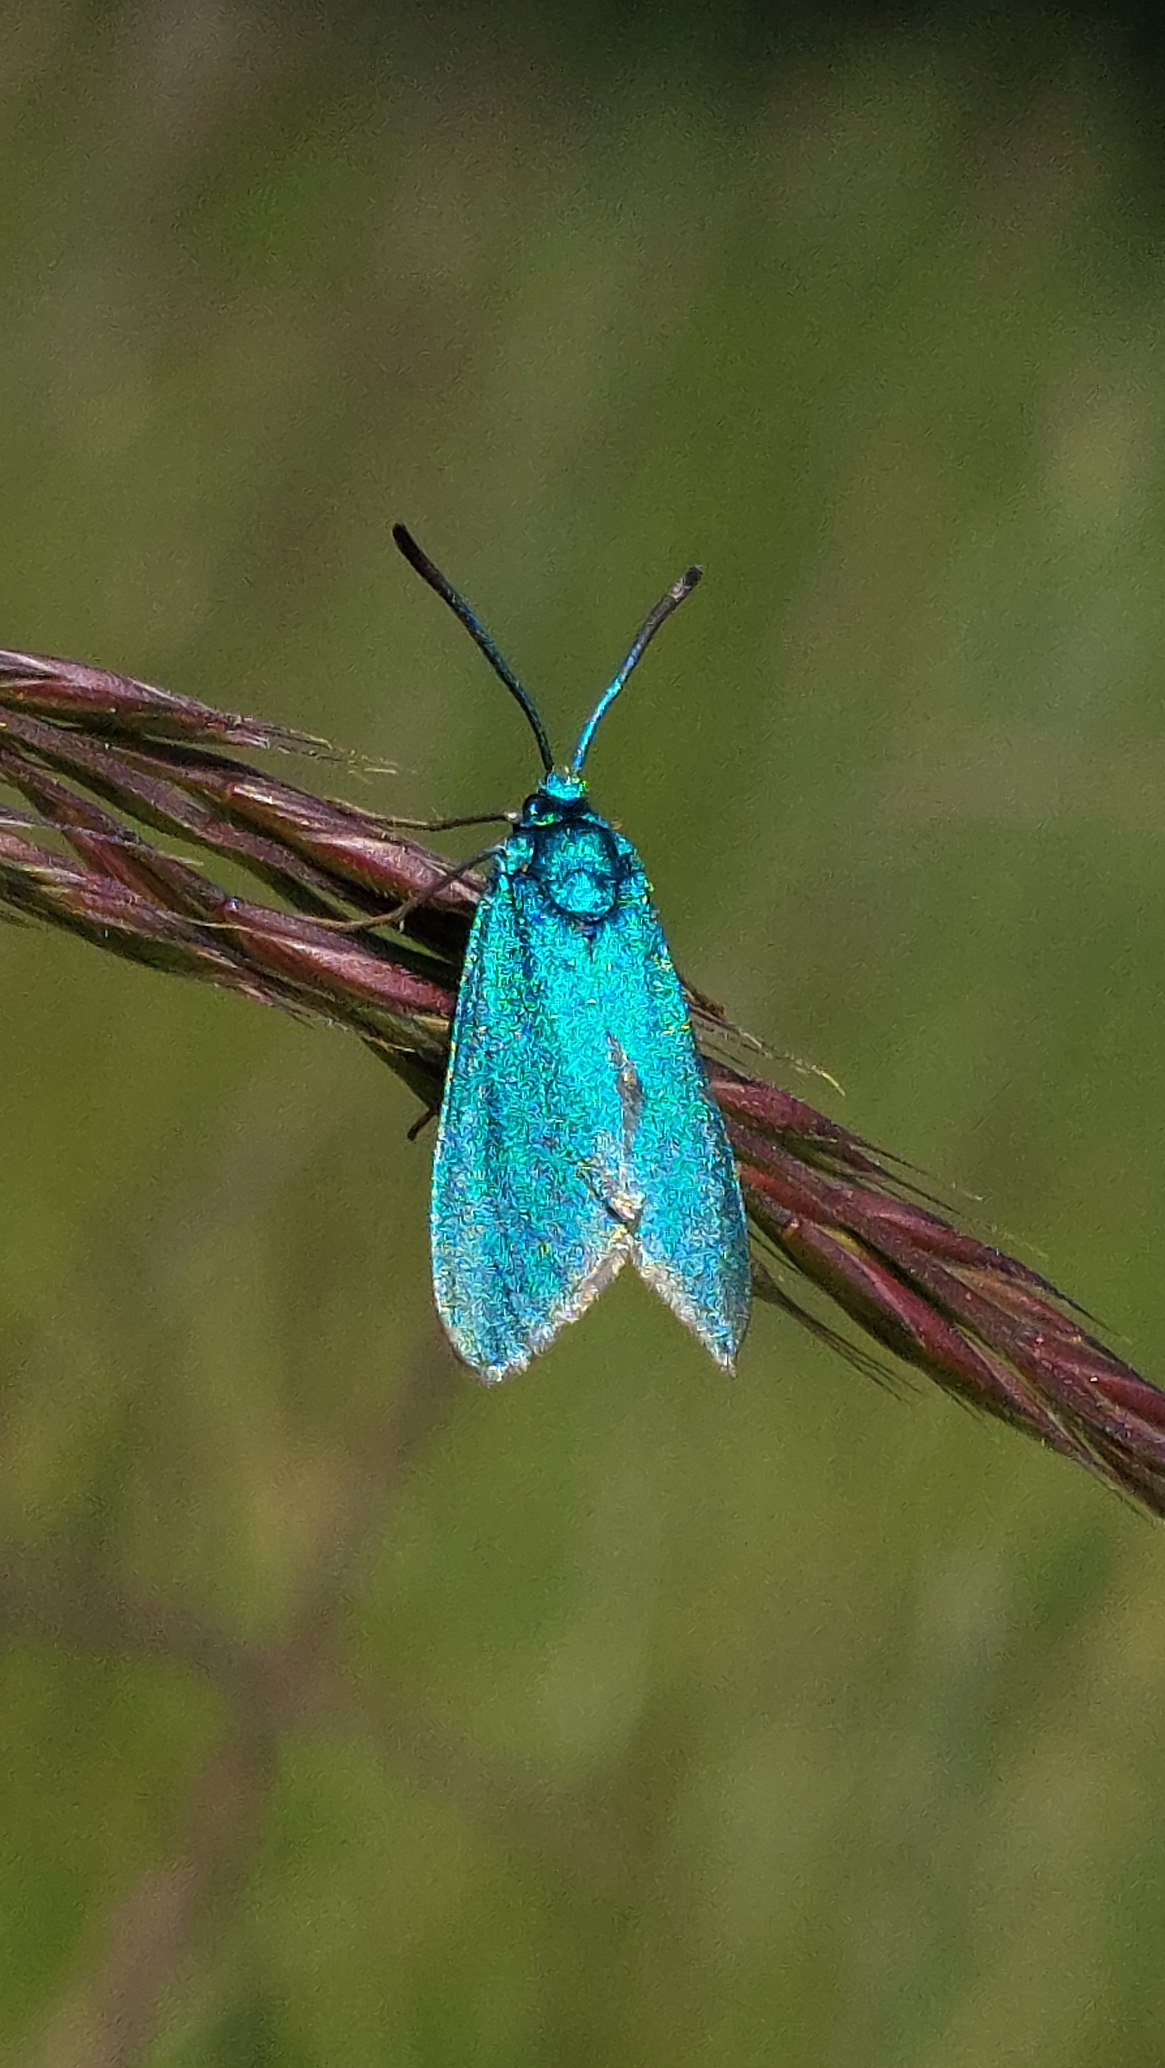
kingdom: Animalia
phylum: Arthropoda
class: Insecta
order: Lepidoptera
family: Zygaenidae
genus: Adscita
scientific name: Adscita statices
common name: Metalvinge
